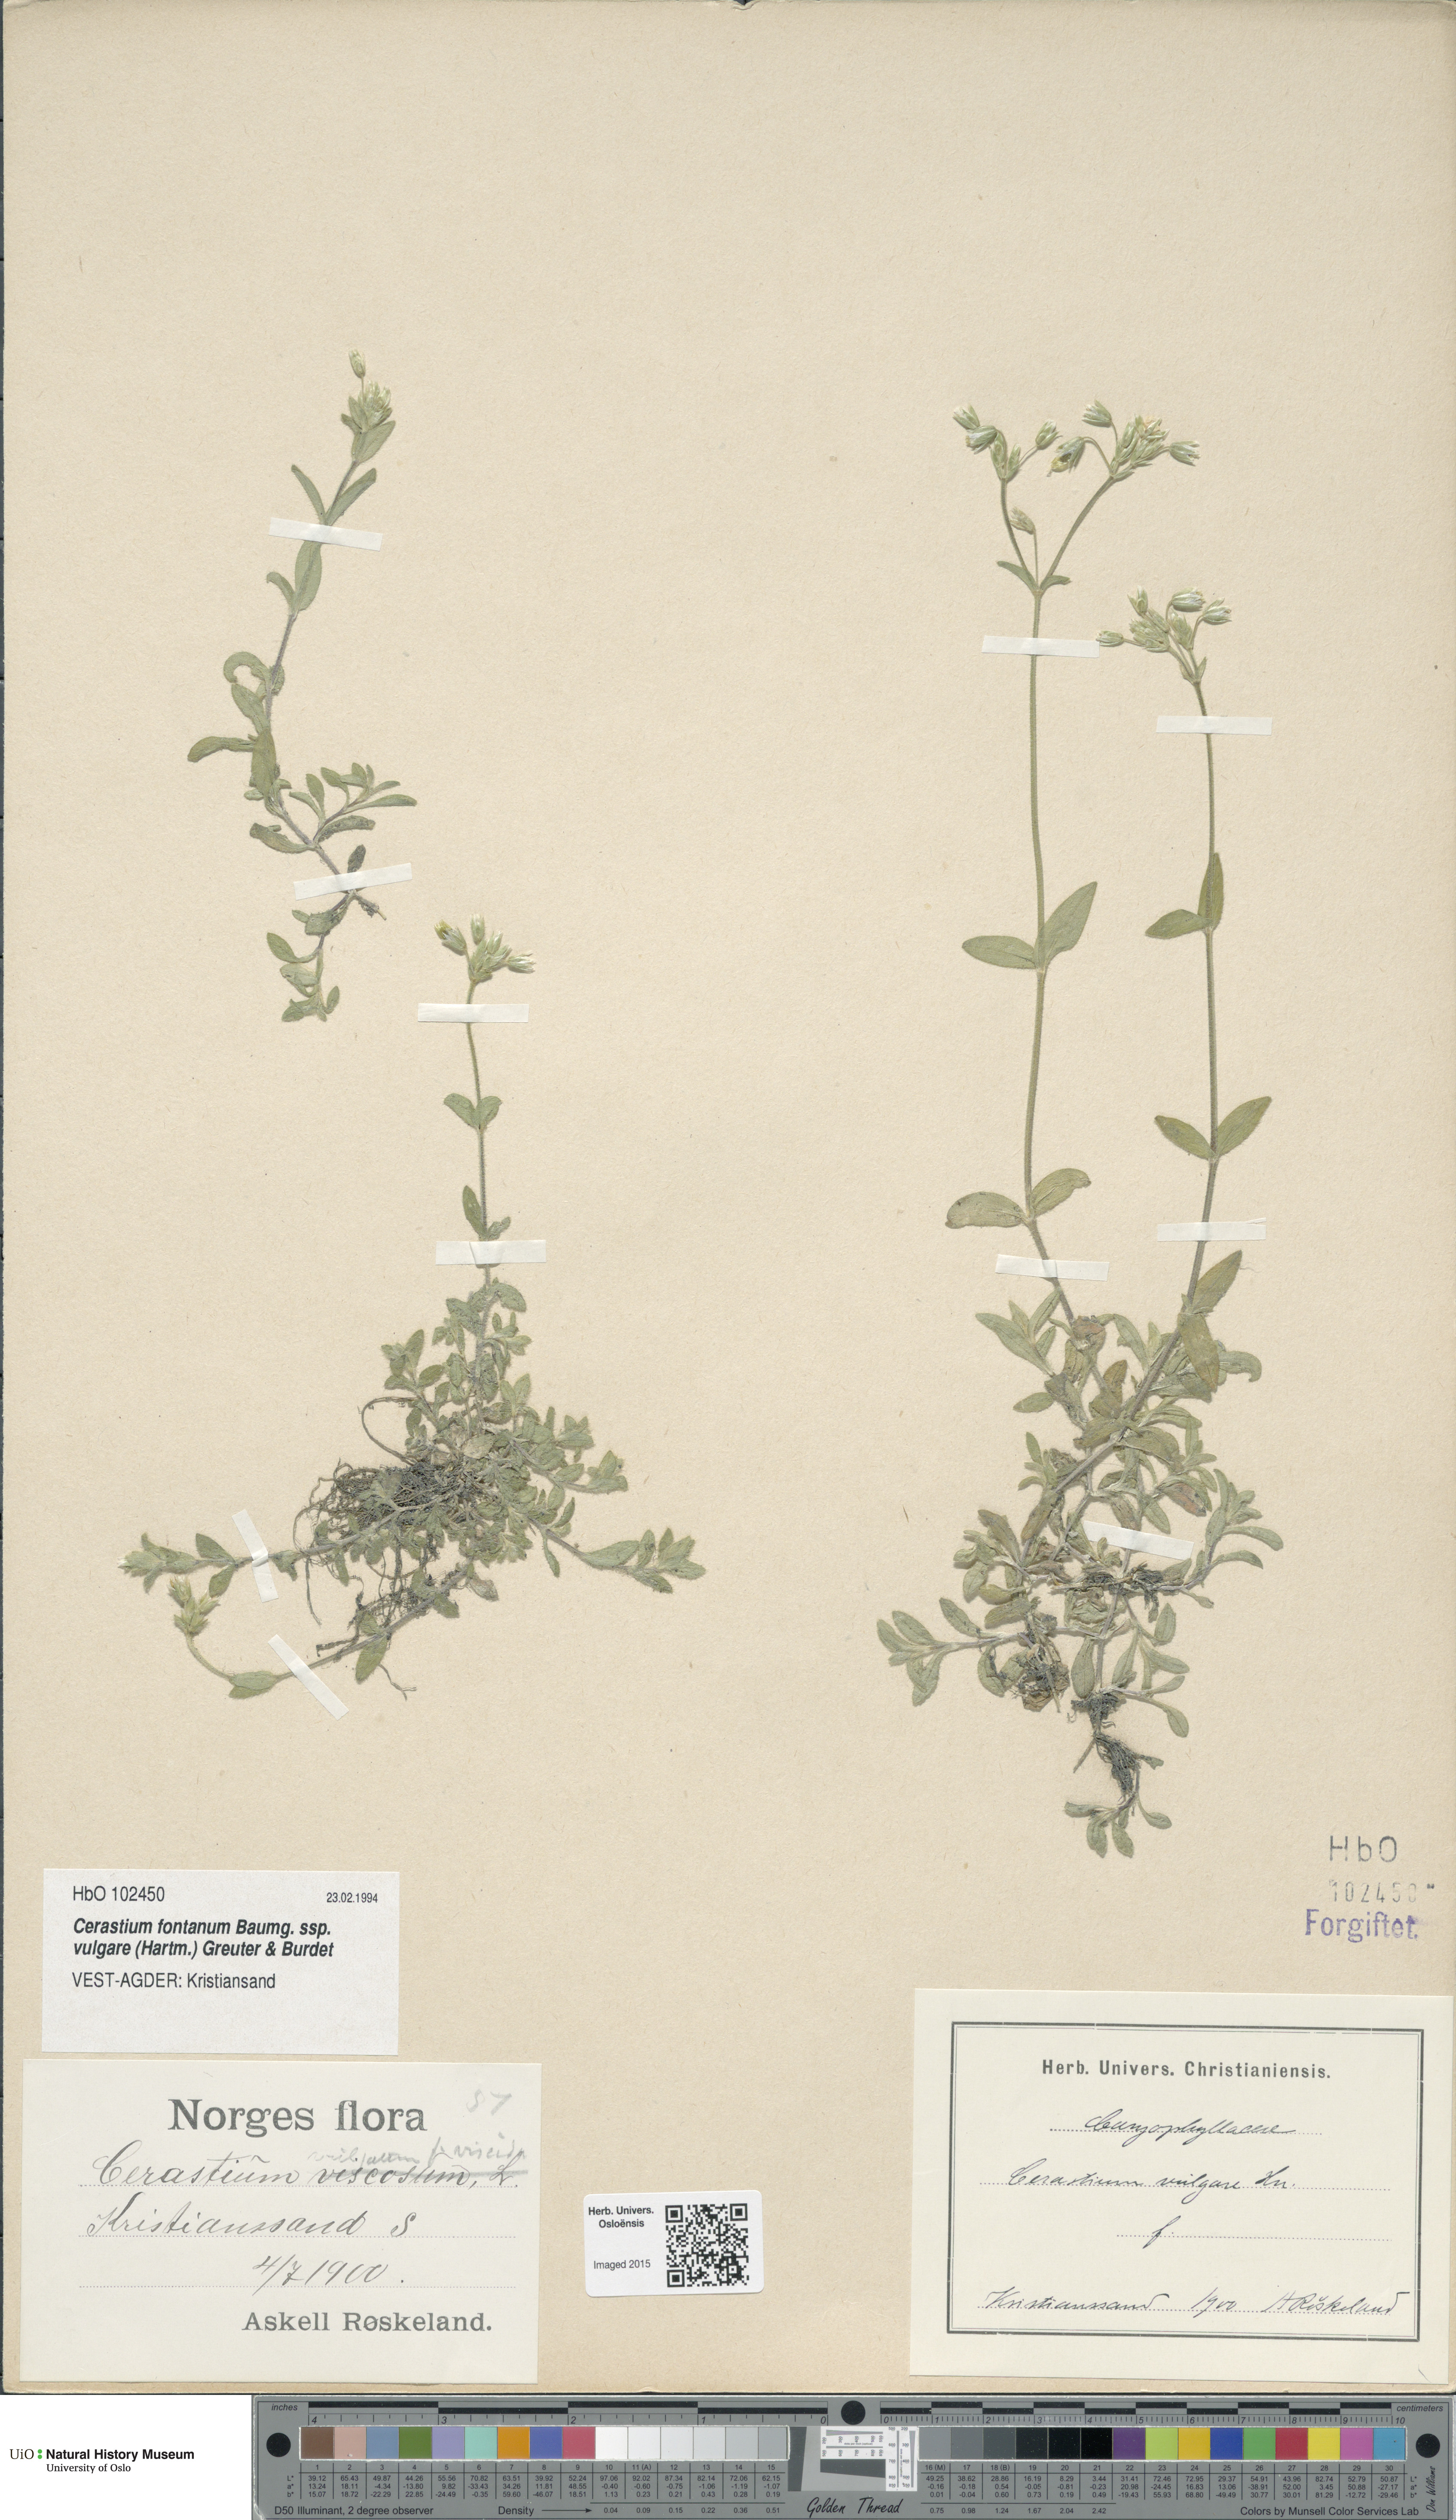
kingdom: Plantae
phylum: Tracheophyta
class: Magnoliopsida
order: Caryophyllales
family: Caryophyllaceae
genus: Cerastium
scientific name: Cerastium holosteoides
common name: Big chickweed
